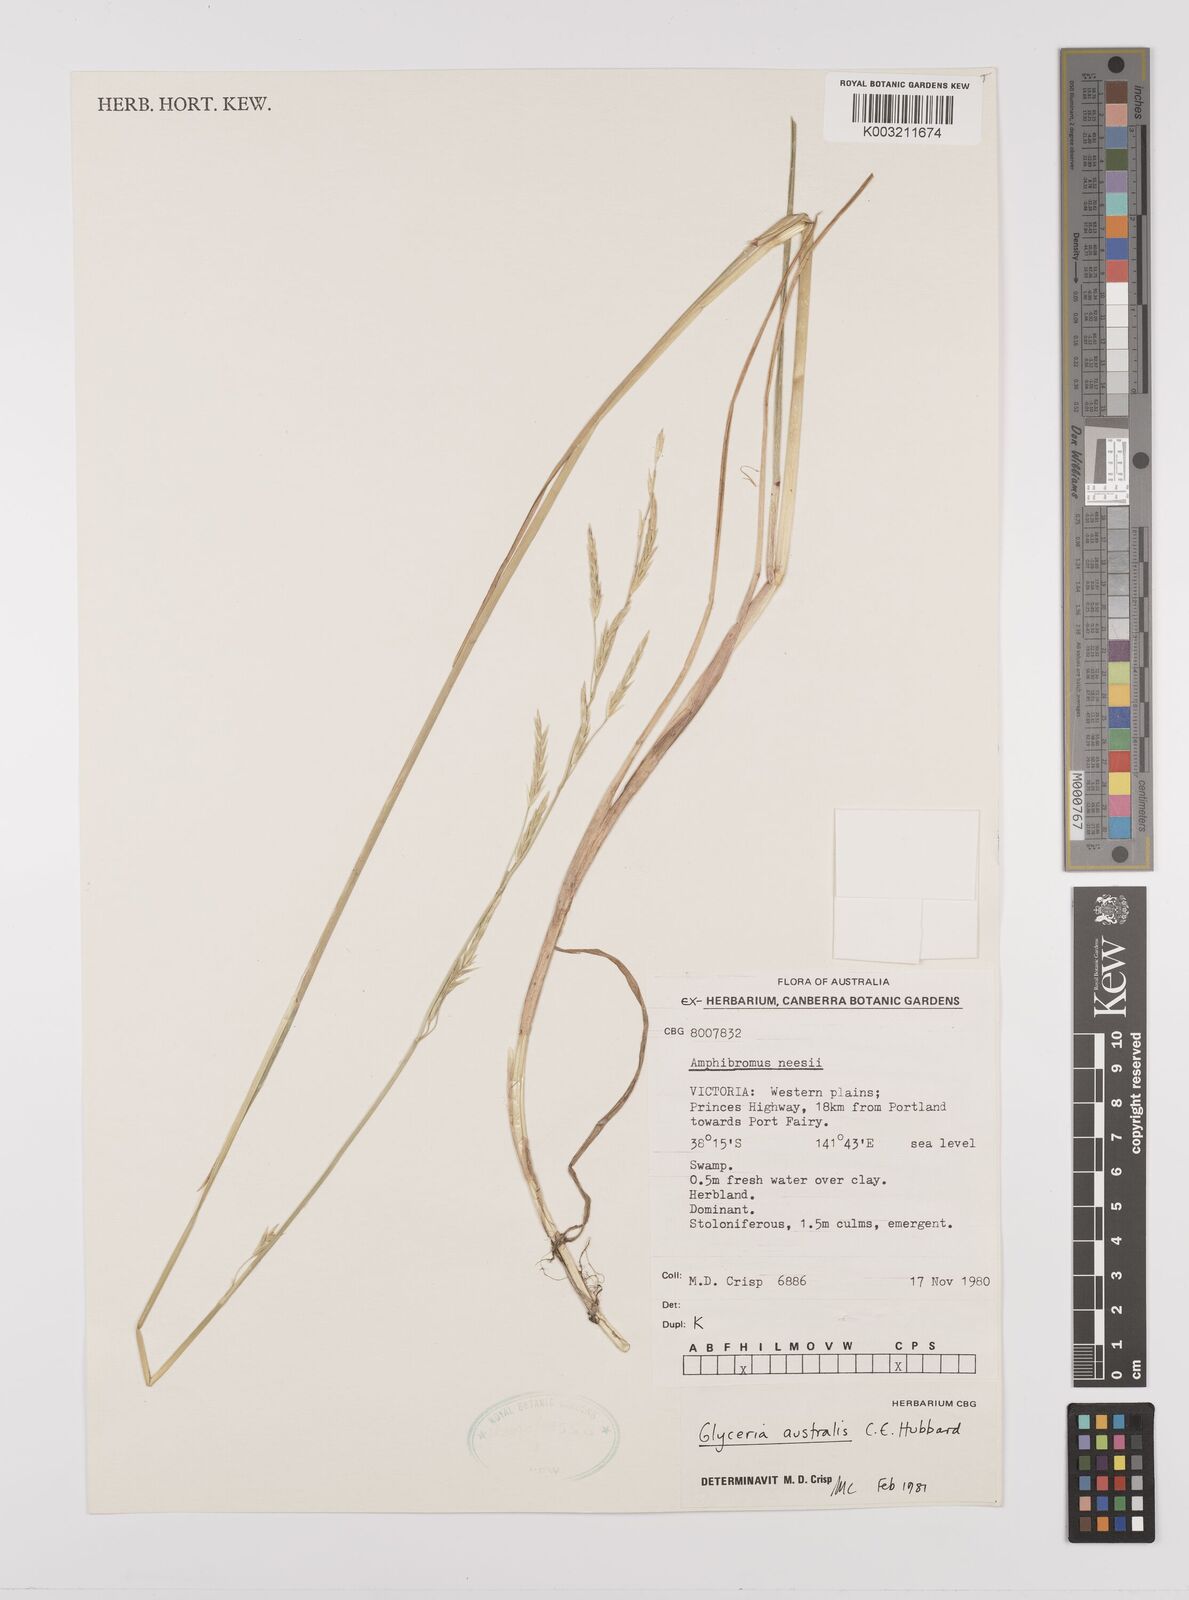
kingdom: Plantae
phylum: Tracheophyta
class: Liliopsida
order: Poales
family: Poaceae
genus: Glyceria
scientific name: Glyceria australis
